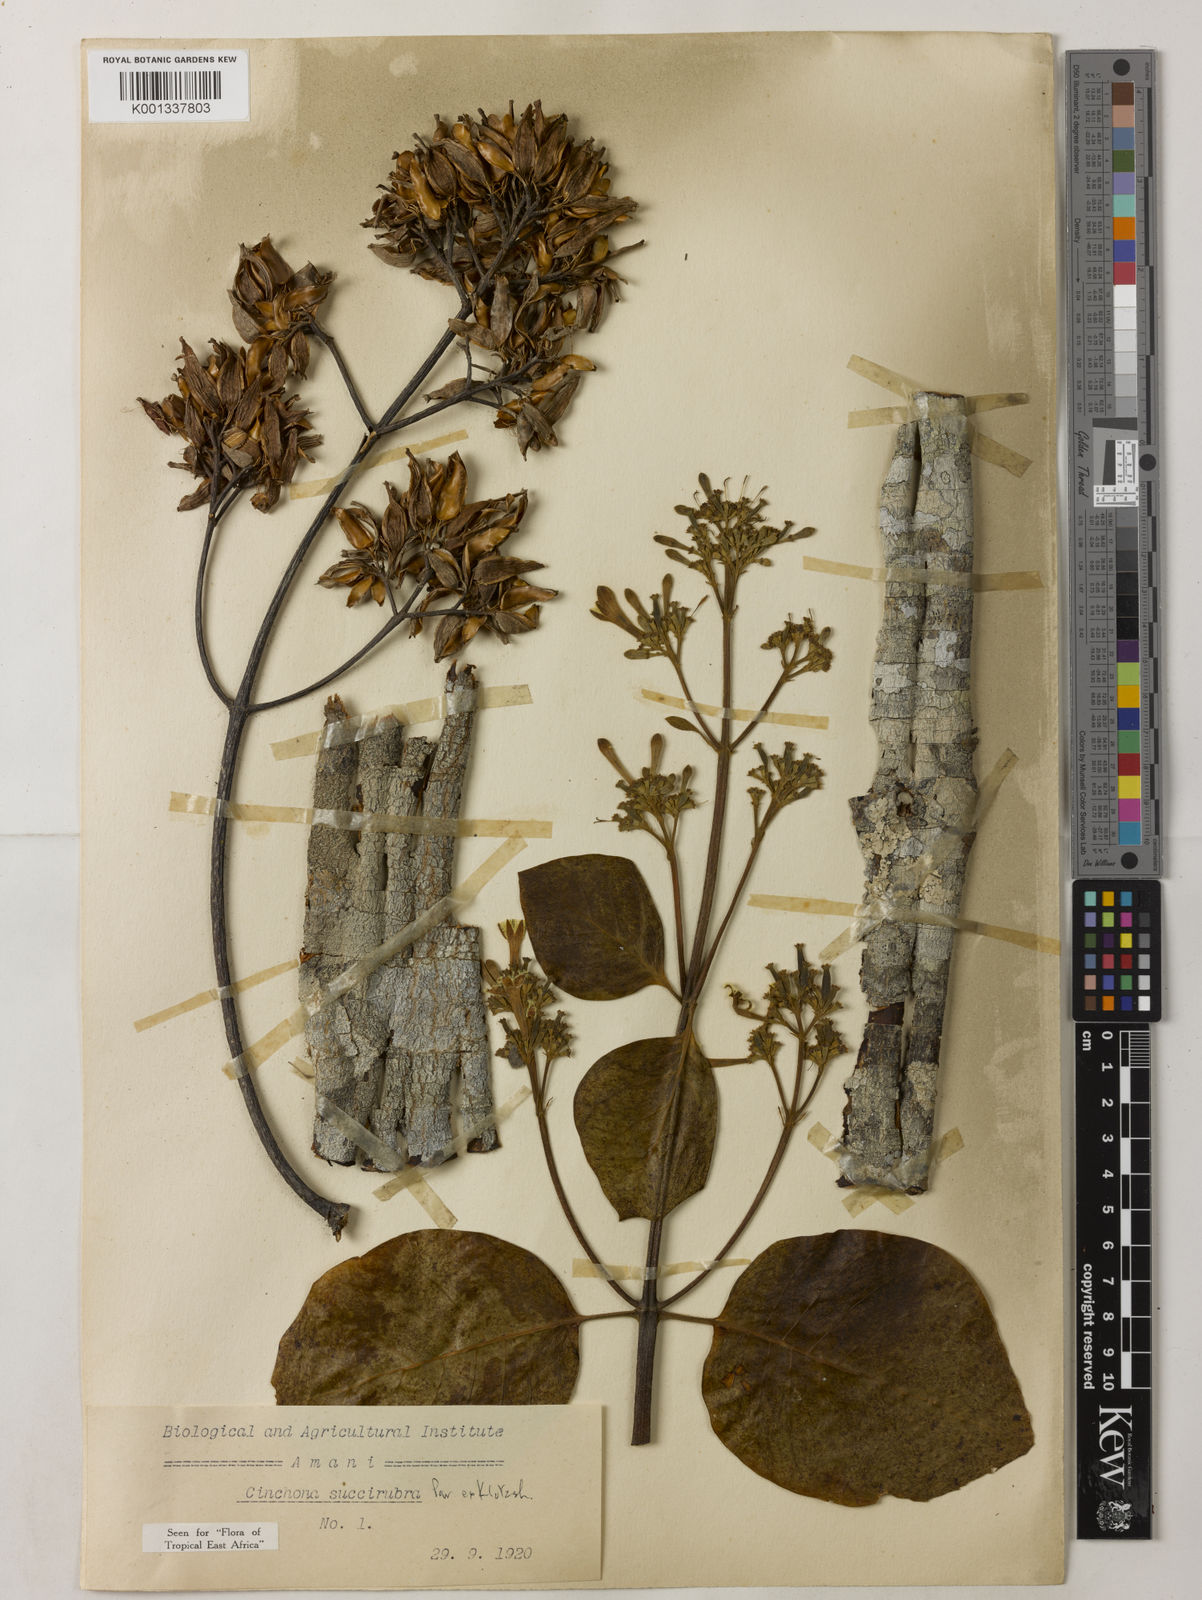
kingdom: Plantae
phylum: Tracheophyta
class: Magnoliopsida
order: Gentianales
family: Rubiaceae
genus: Cinchona
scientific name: Cinchona pubescens
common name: Quinine
